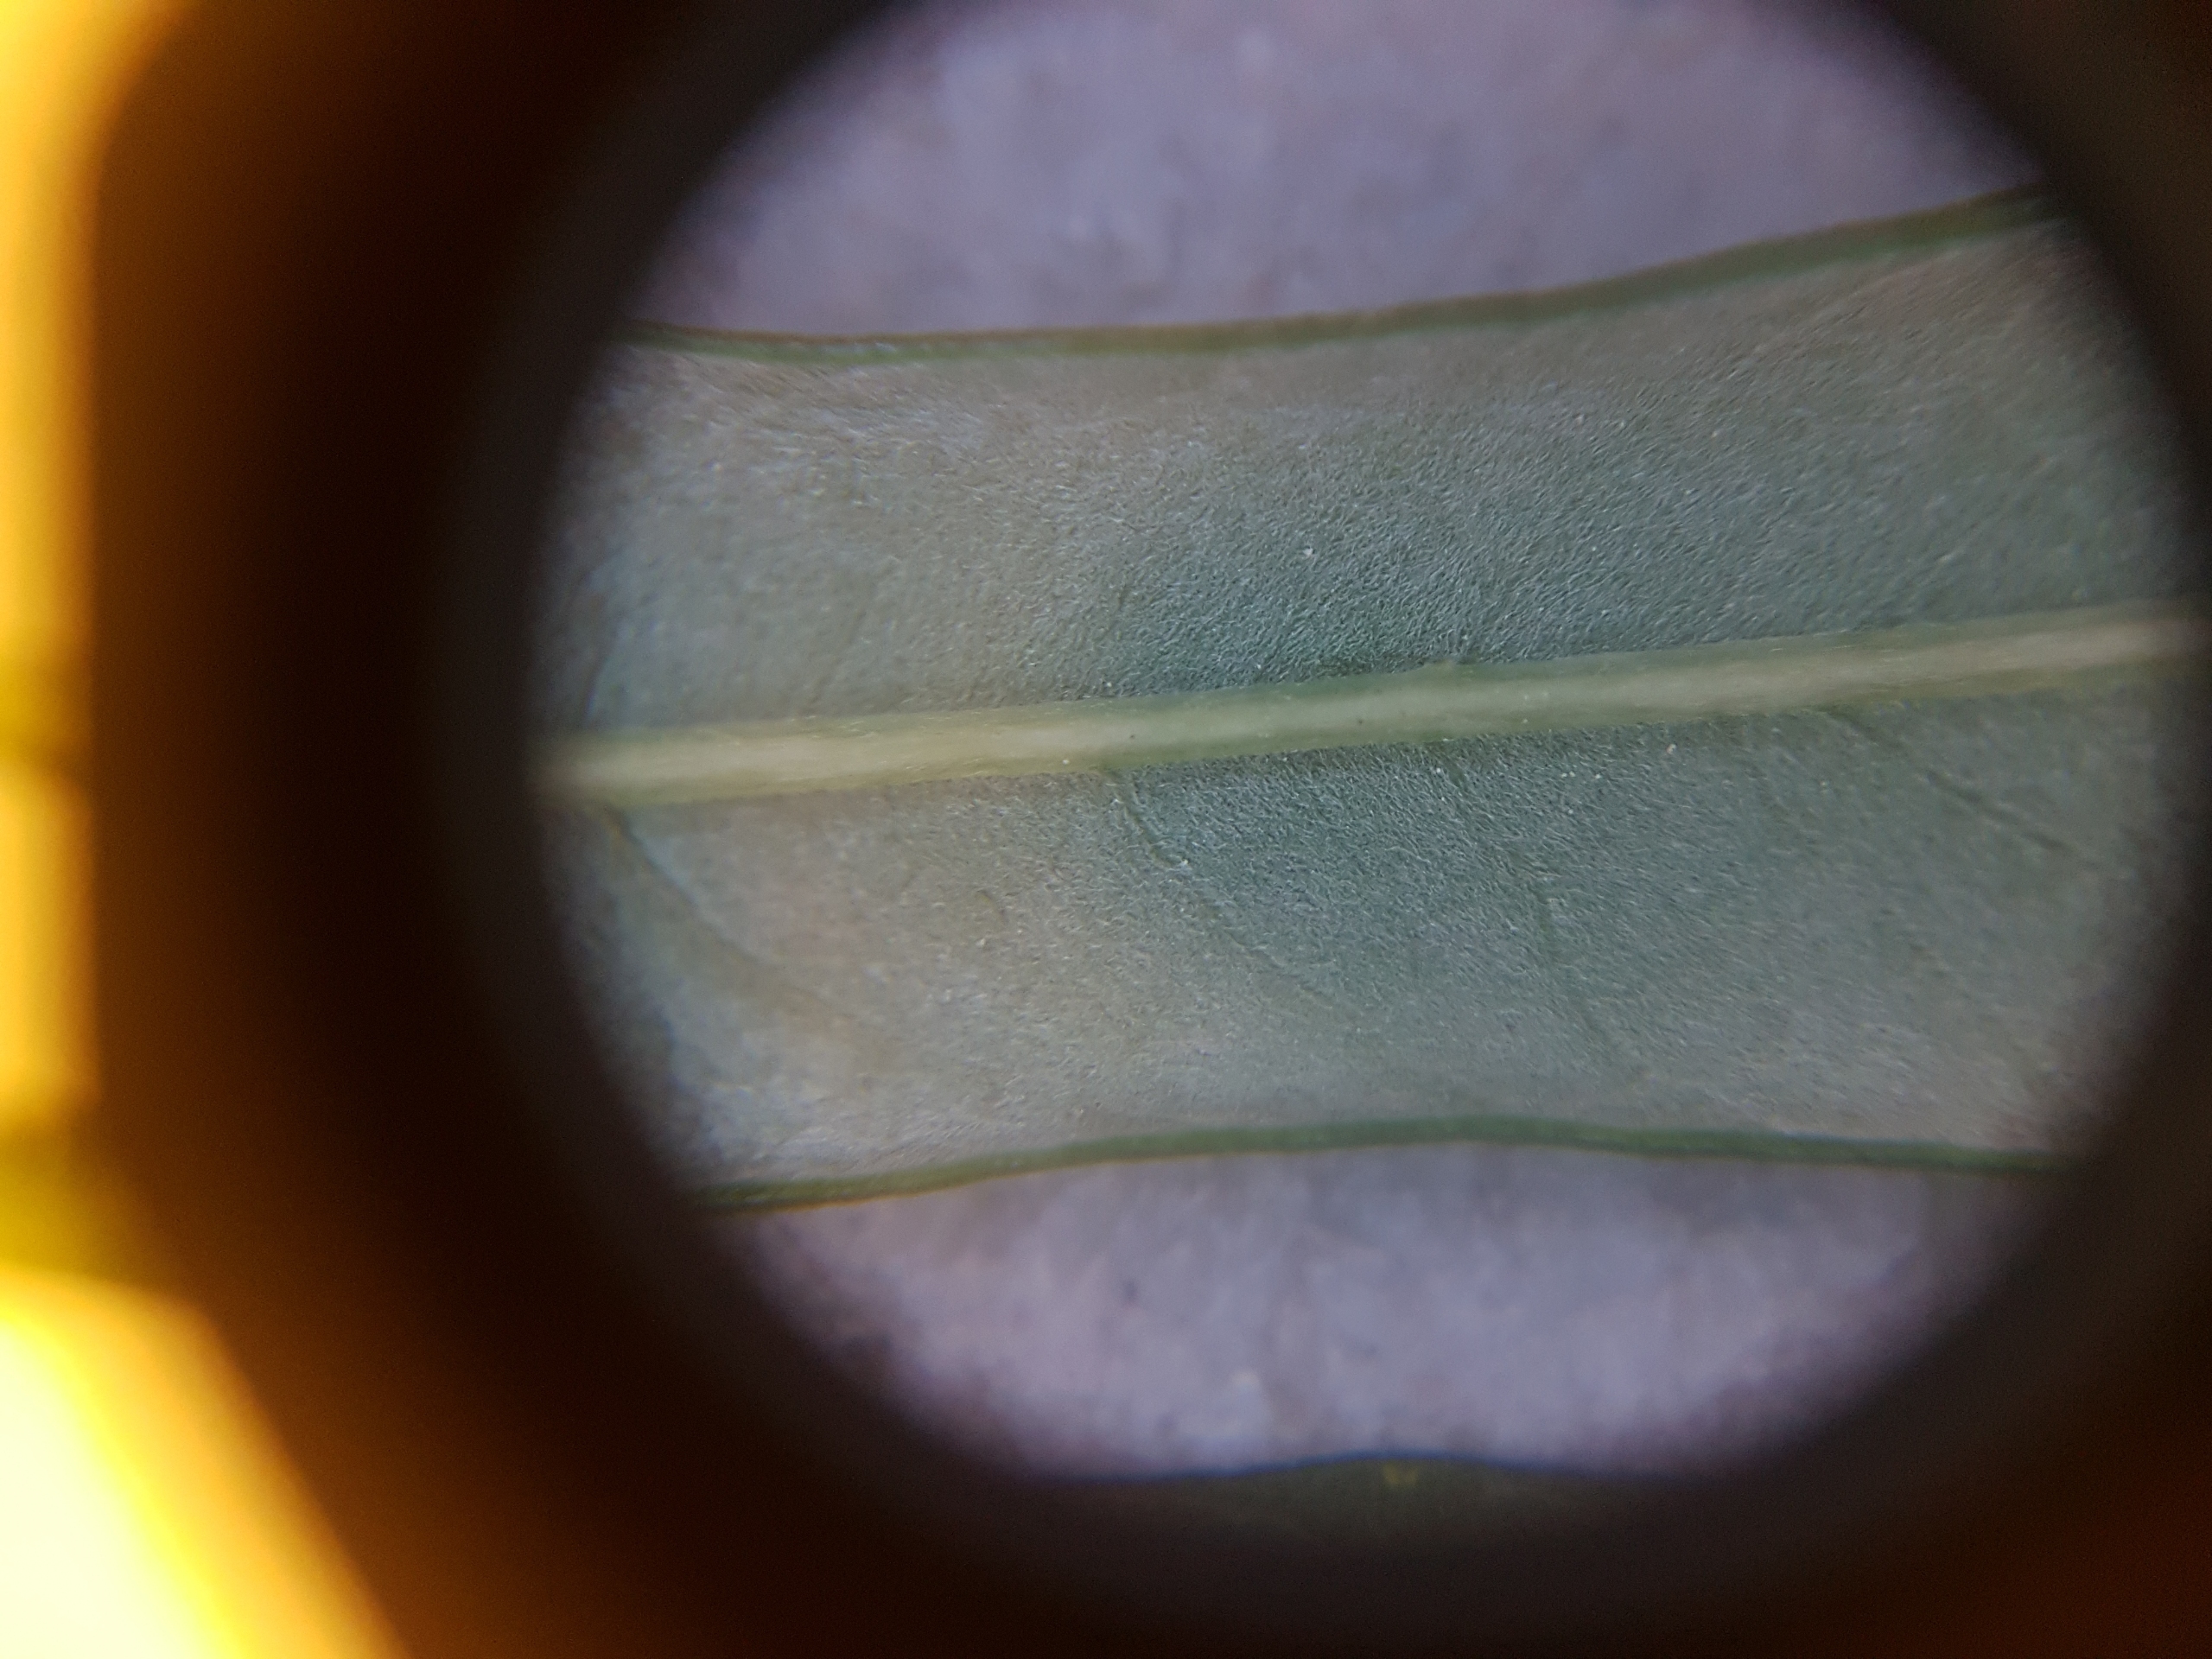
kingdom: Plantae
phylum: Tracheophyta
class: Magnoliopsida
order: Malpighiales
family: Salicaceae
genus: Salix
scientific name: Salix viminalis
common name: Bånd-pil
